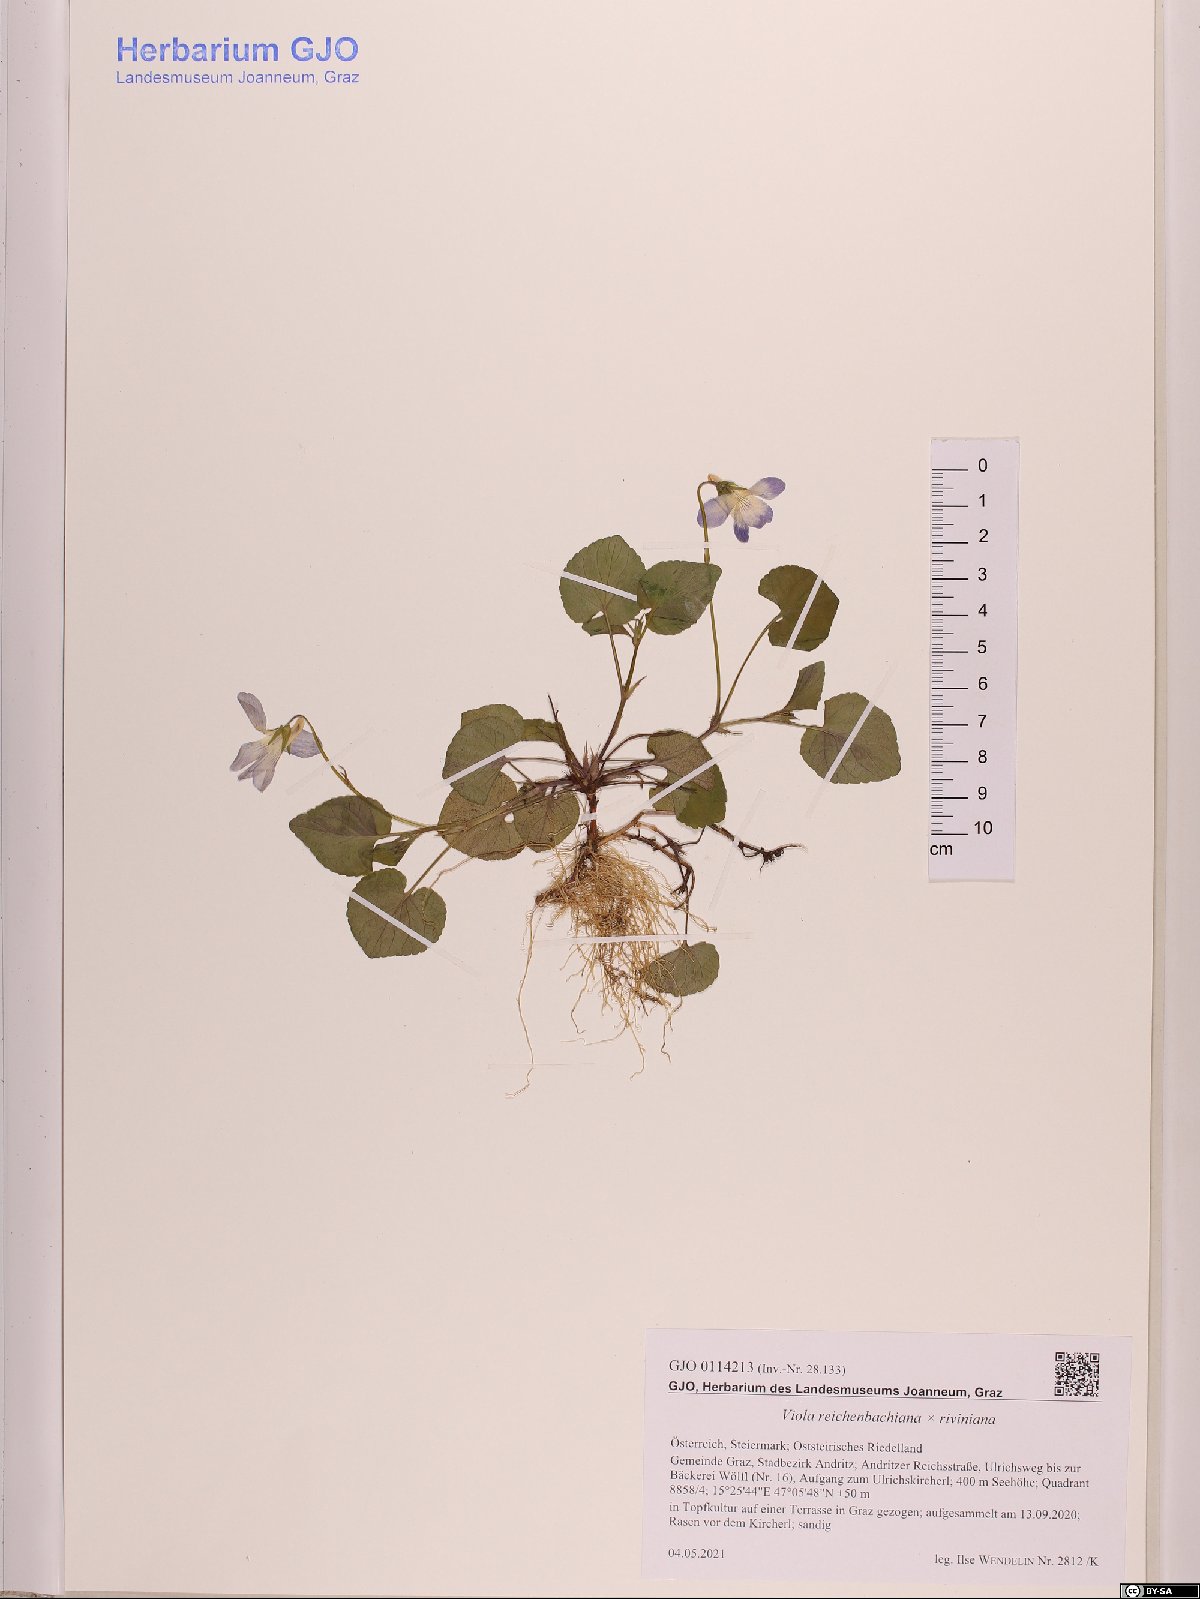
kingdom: Plantae
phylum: Tracheophyta
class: Magnoliopsida
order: Malpighiales
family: Violaceae
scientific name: Violaceae
